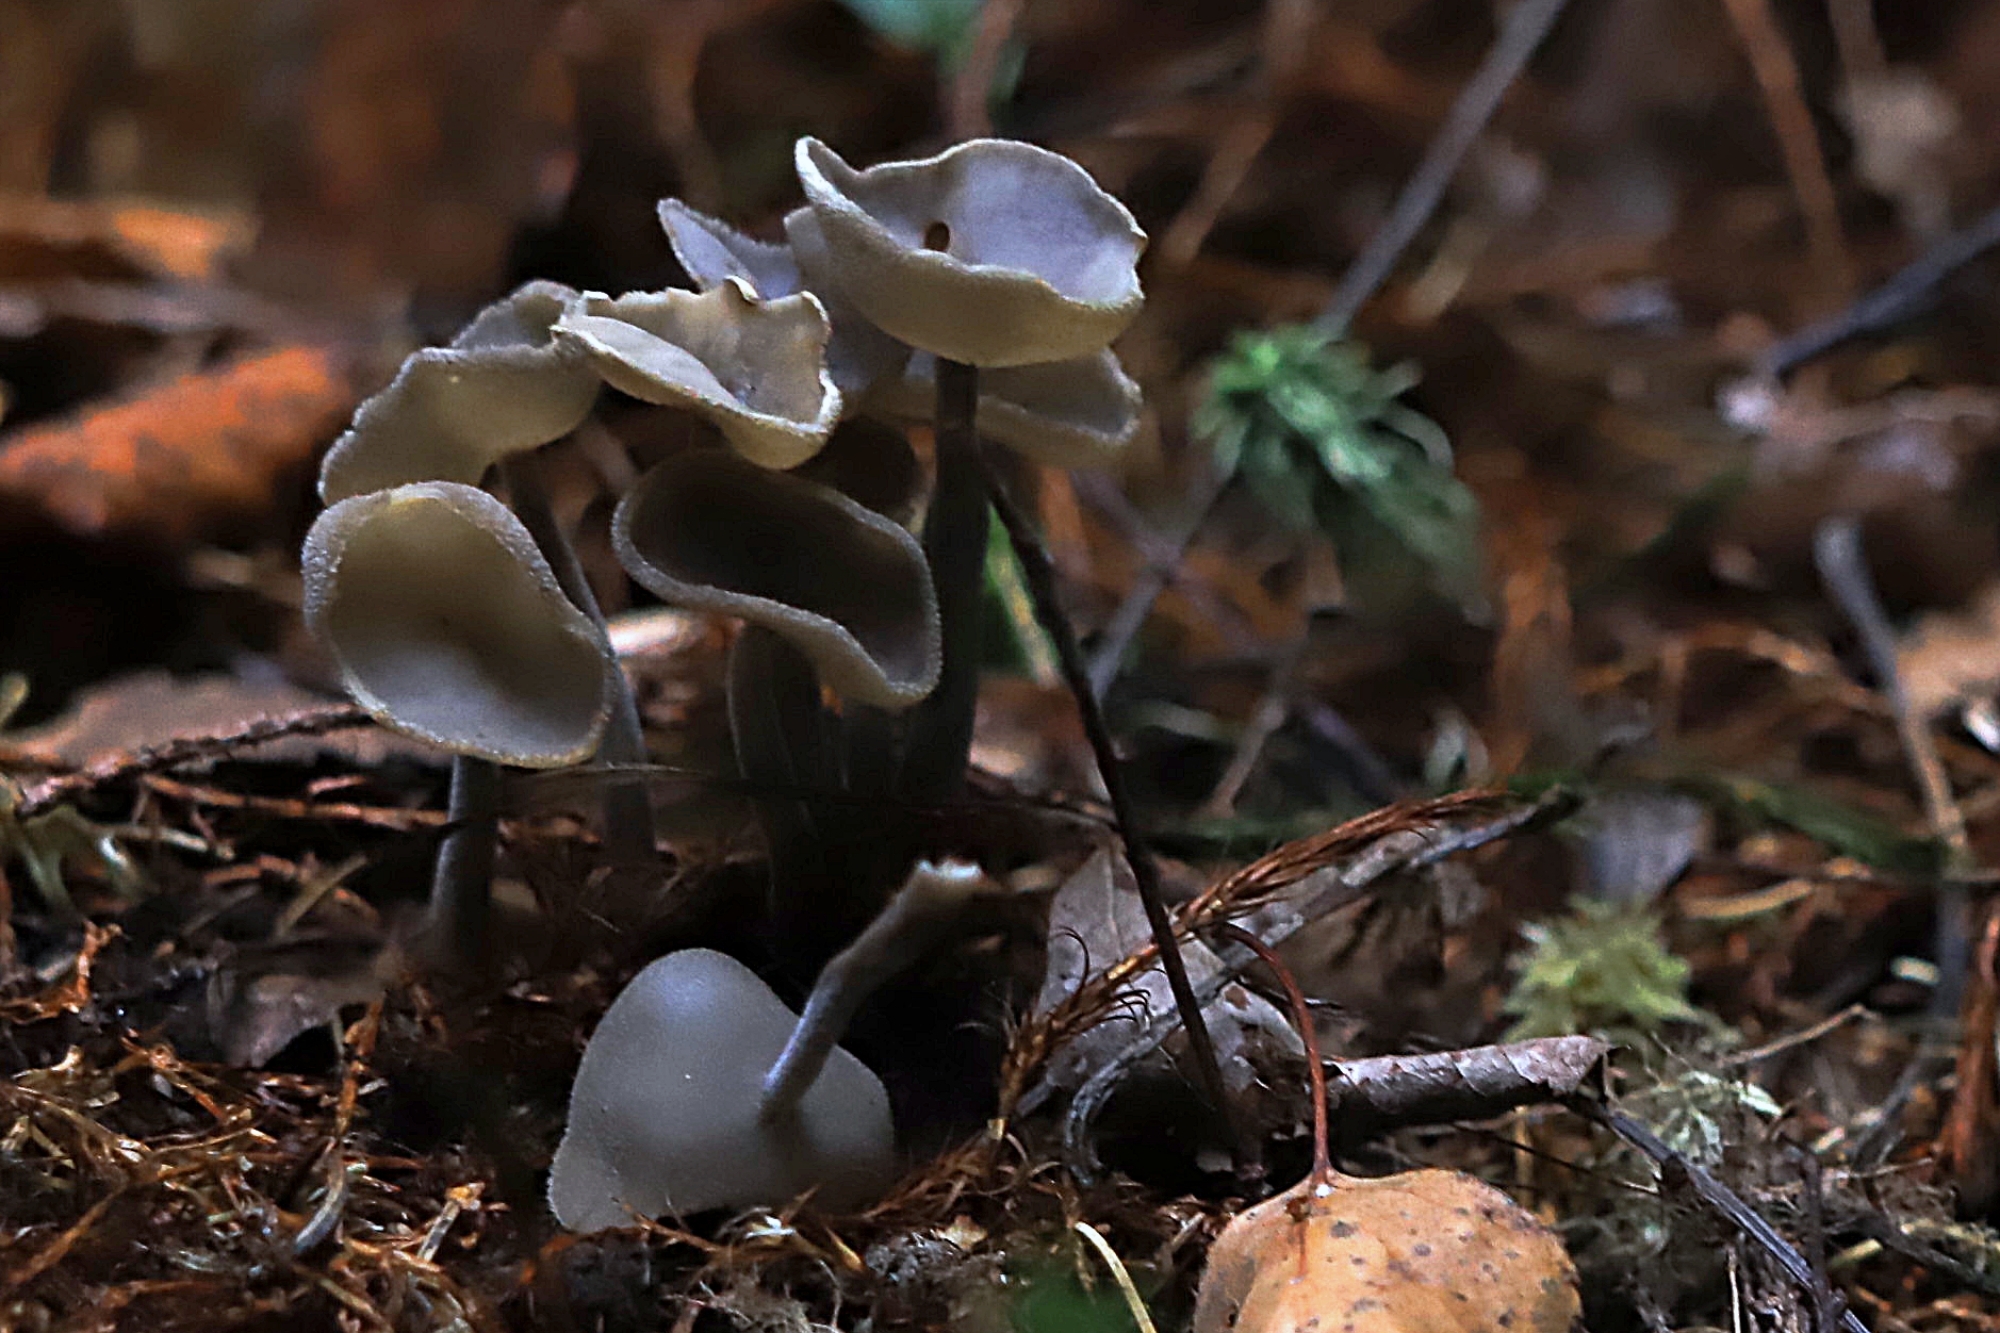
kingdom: Fungi
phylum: Ascomycota
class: Pezizomycetes
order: Pezizales
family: Helvellaceae
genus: Helvella
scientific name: Helvella macropus
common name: Felt saddle
